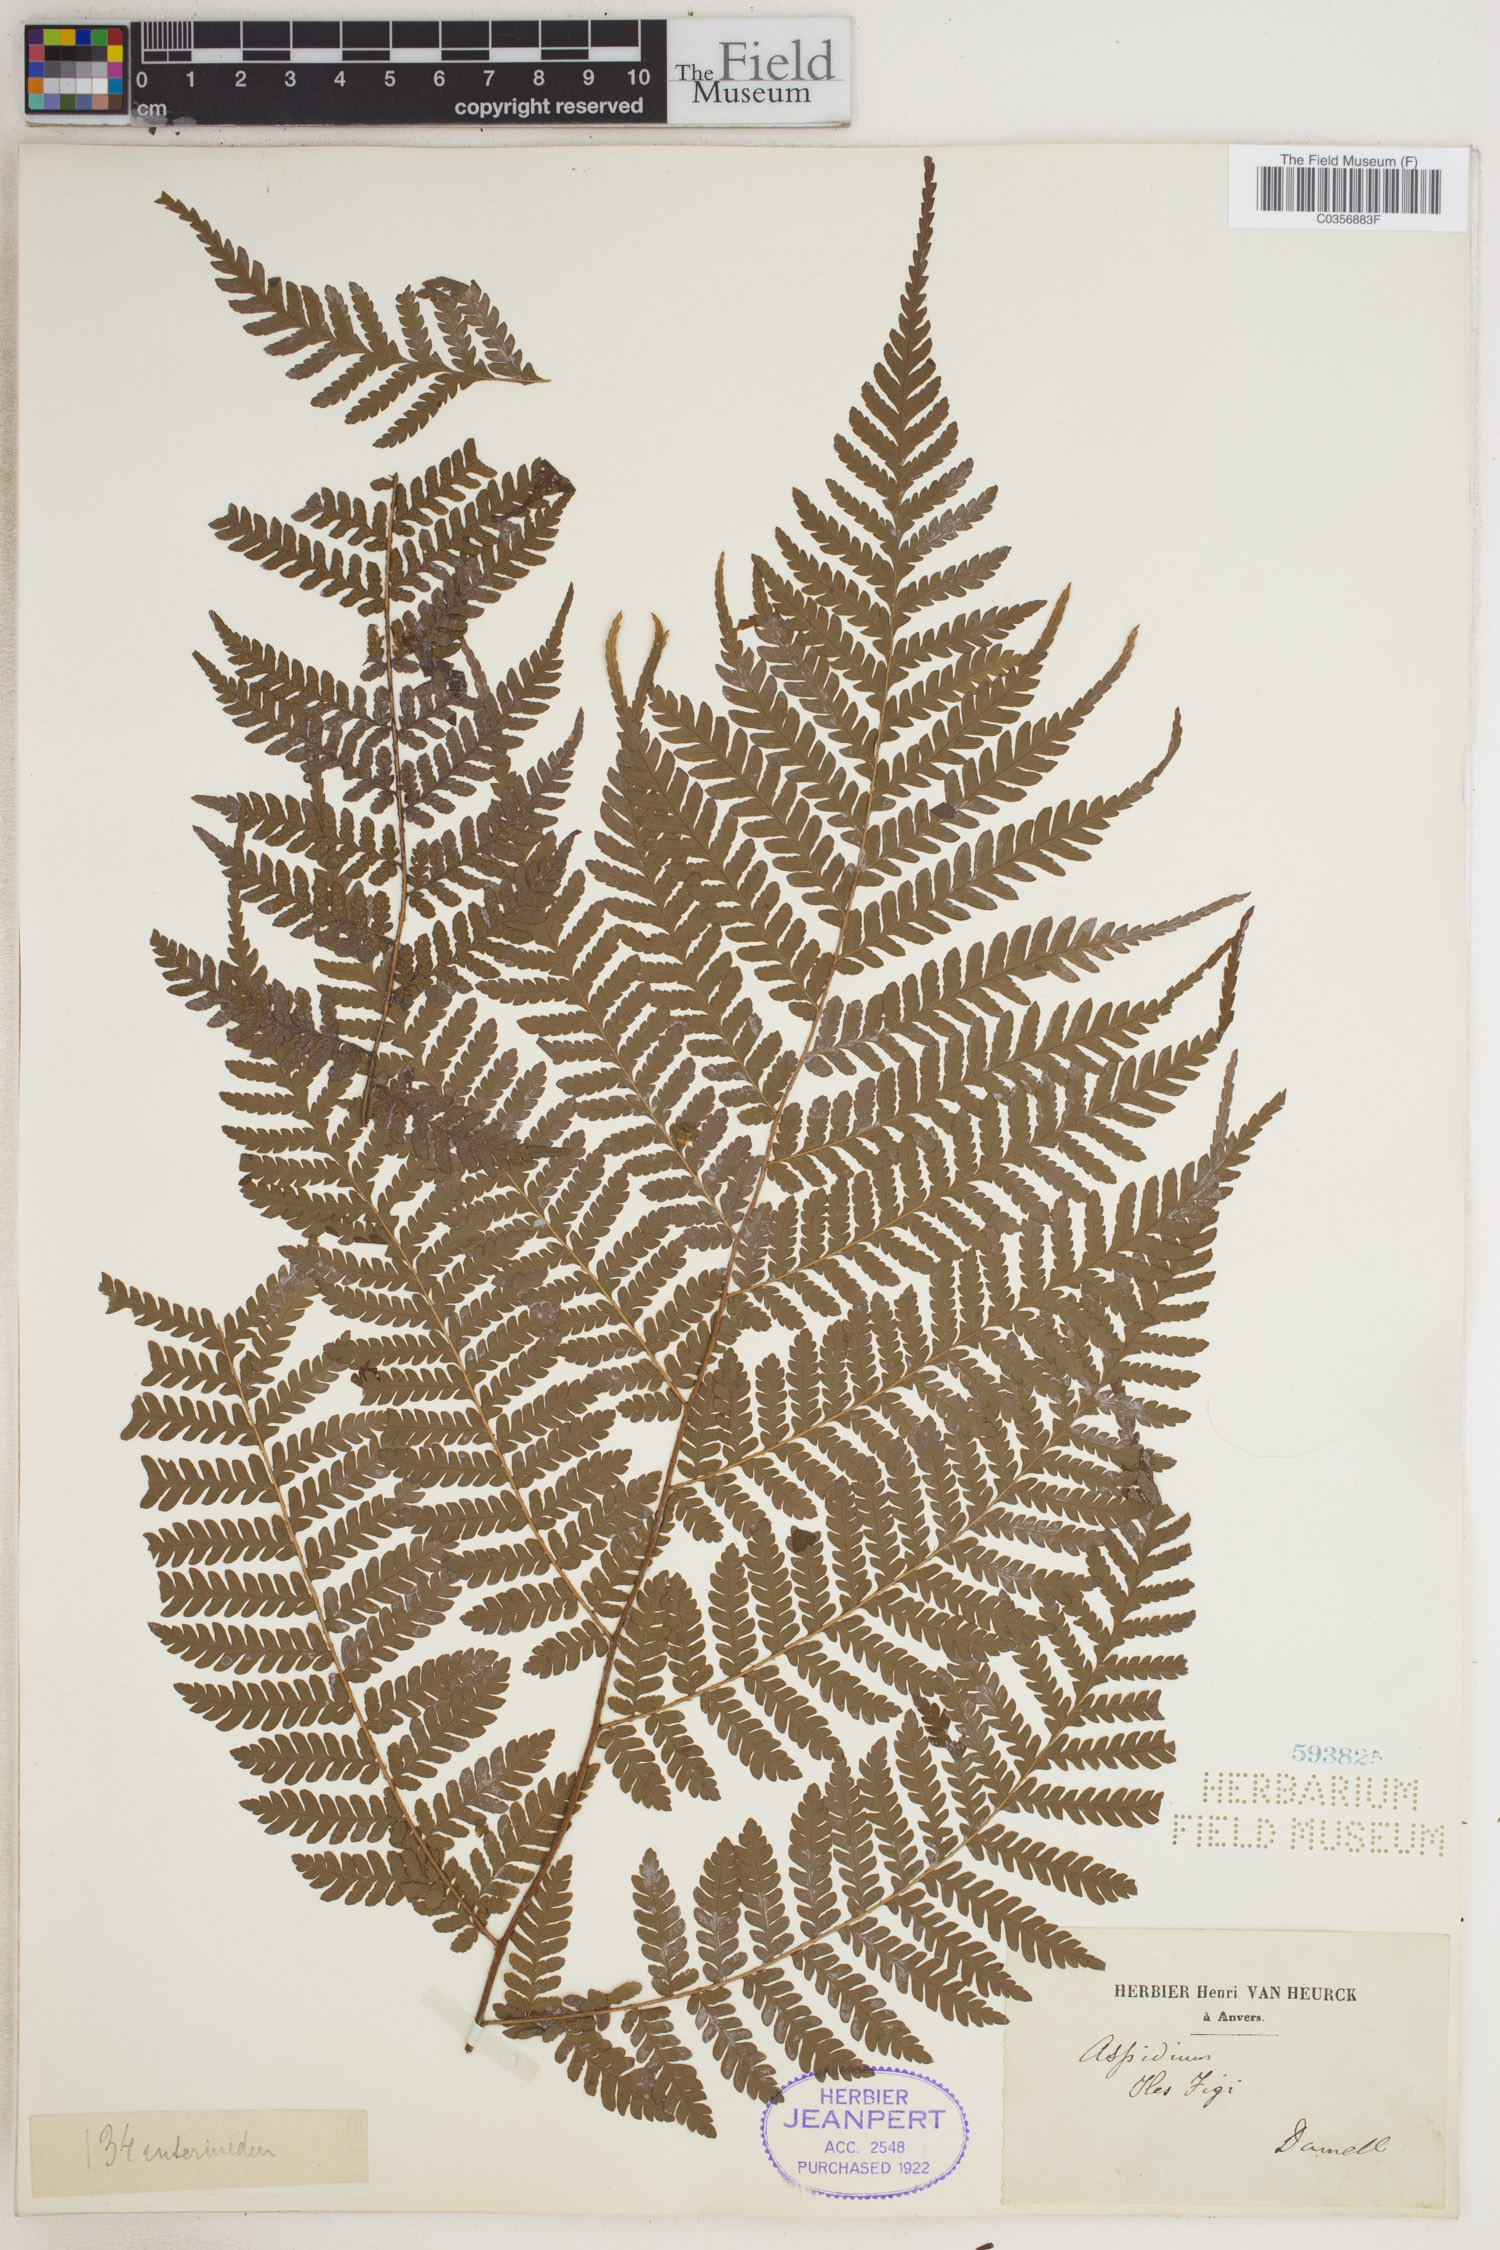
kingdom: Plantae
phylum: Tracheophyta
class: Polypodiopsida
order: Polypodiales
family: Tectariaceae
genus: Tectaria
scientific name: Tectaria Aspidium spec
